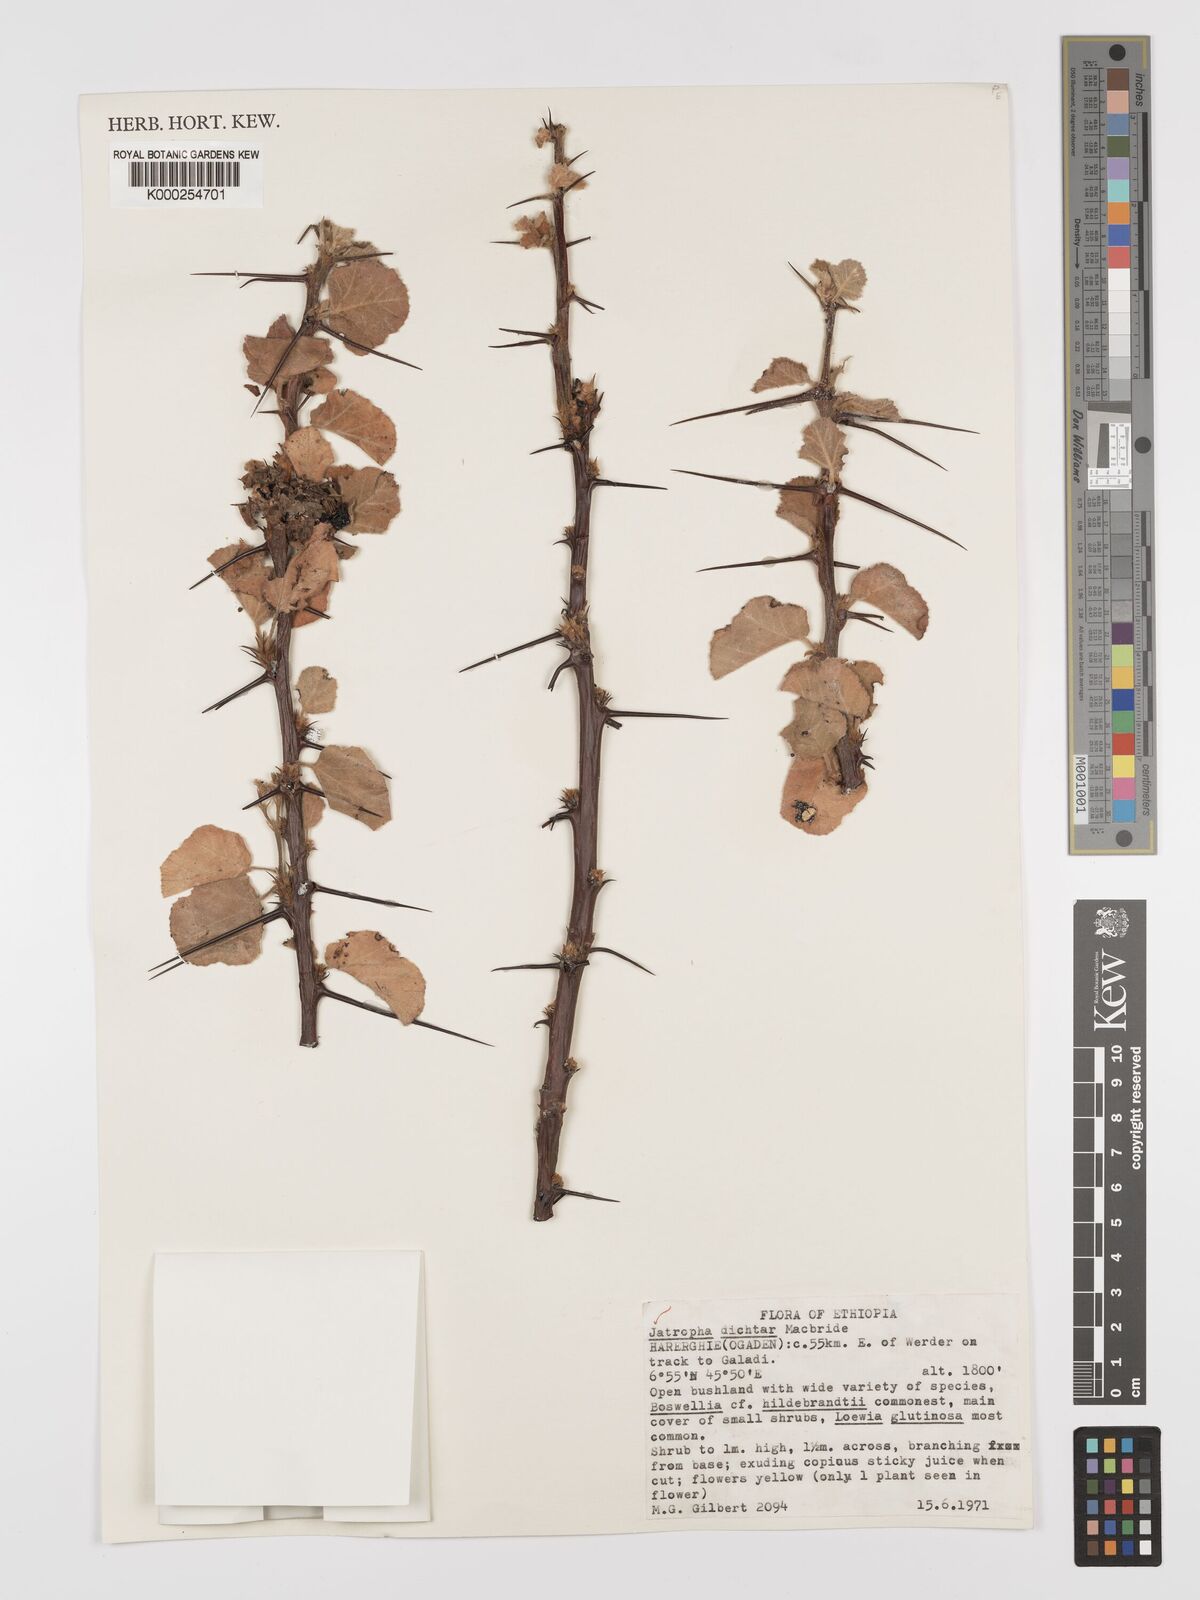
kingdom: Plantae
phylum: Tracheophyta
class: Magnoliopsida
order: Malpighiales
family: Euphorbiaceae
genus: Jatropha
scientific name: Jatropha dichtar
